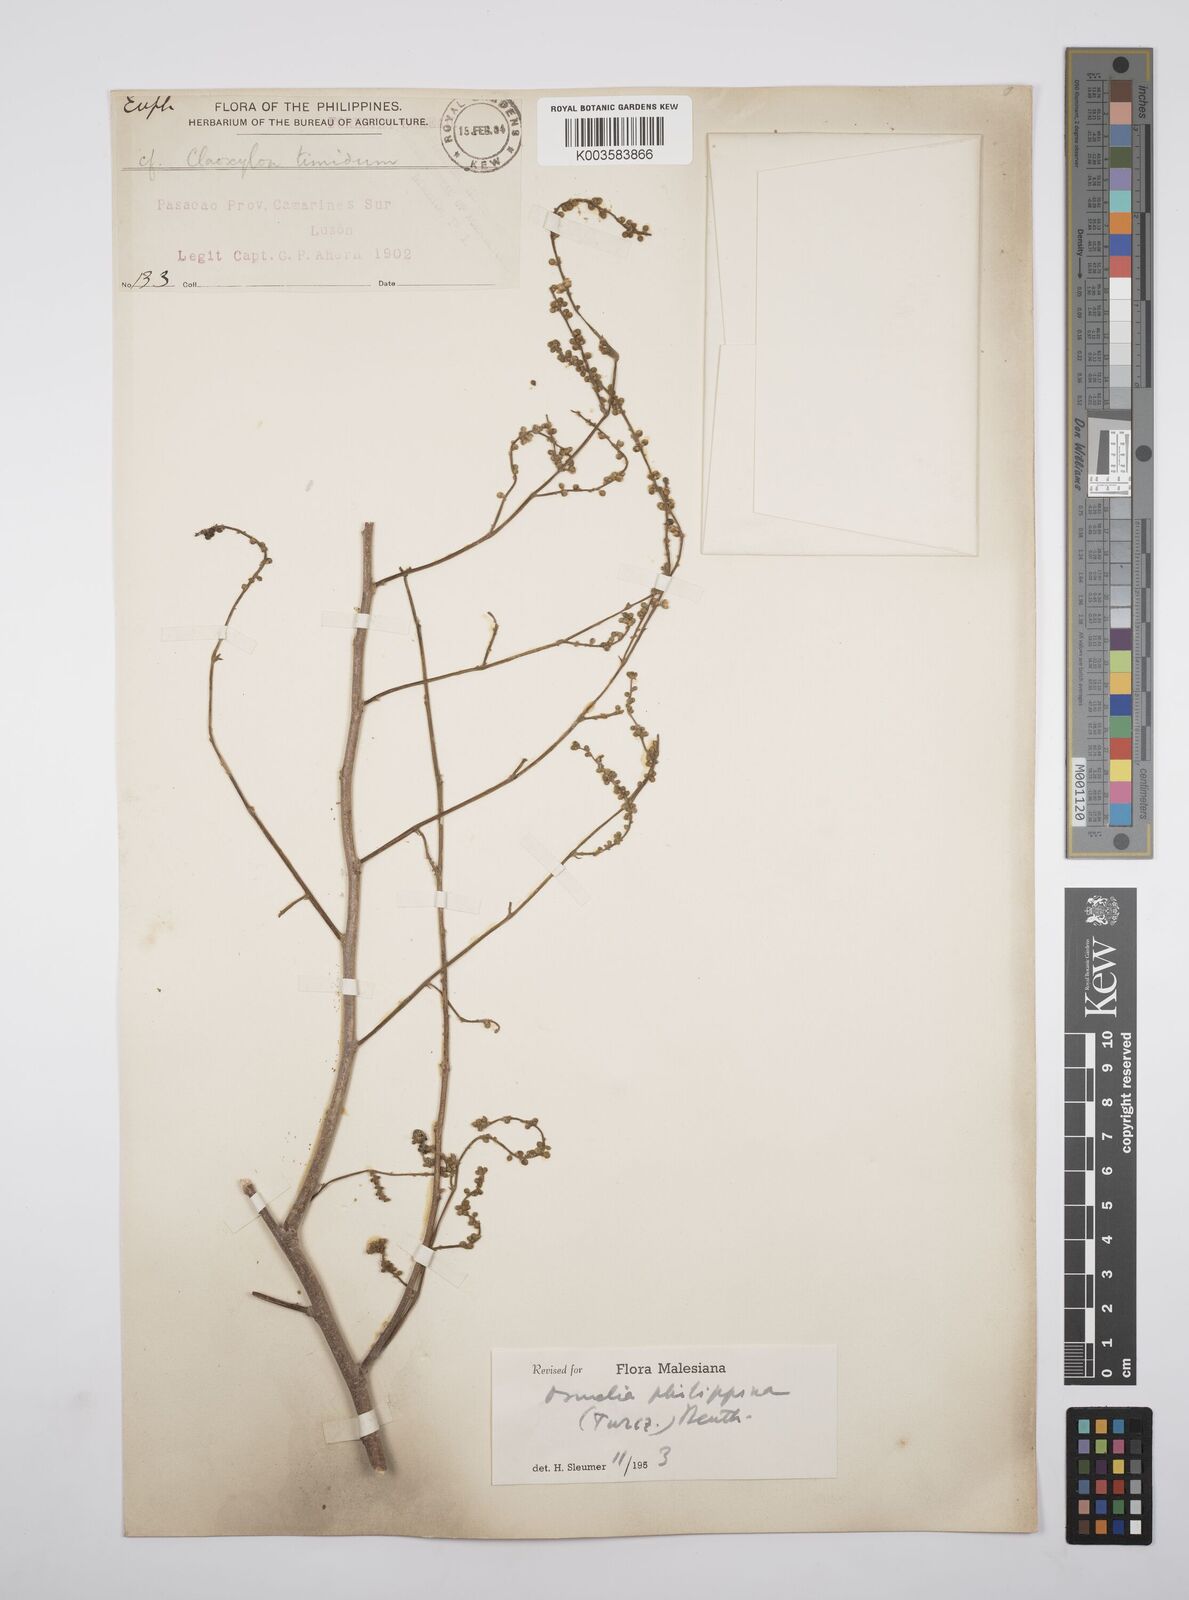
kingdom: Plantae
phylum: Tracheophyta
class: Magnoliopsida
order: Malpighiales
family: Salicaceae
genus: Osmelia
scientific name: Osmelia philippina
